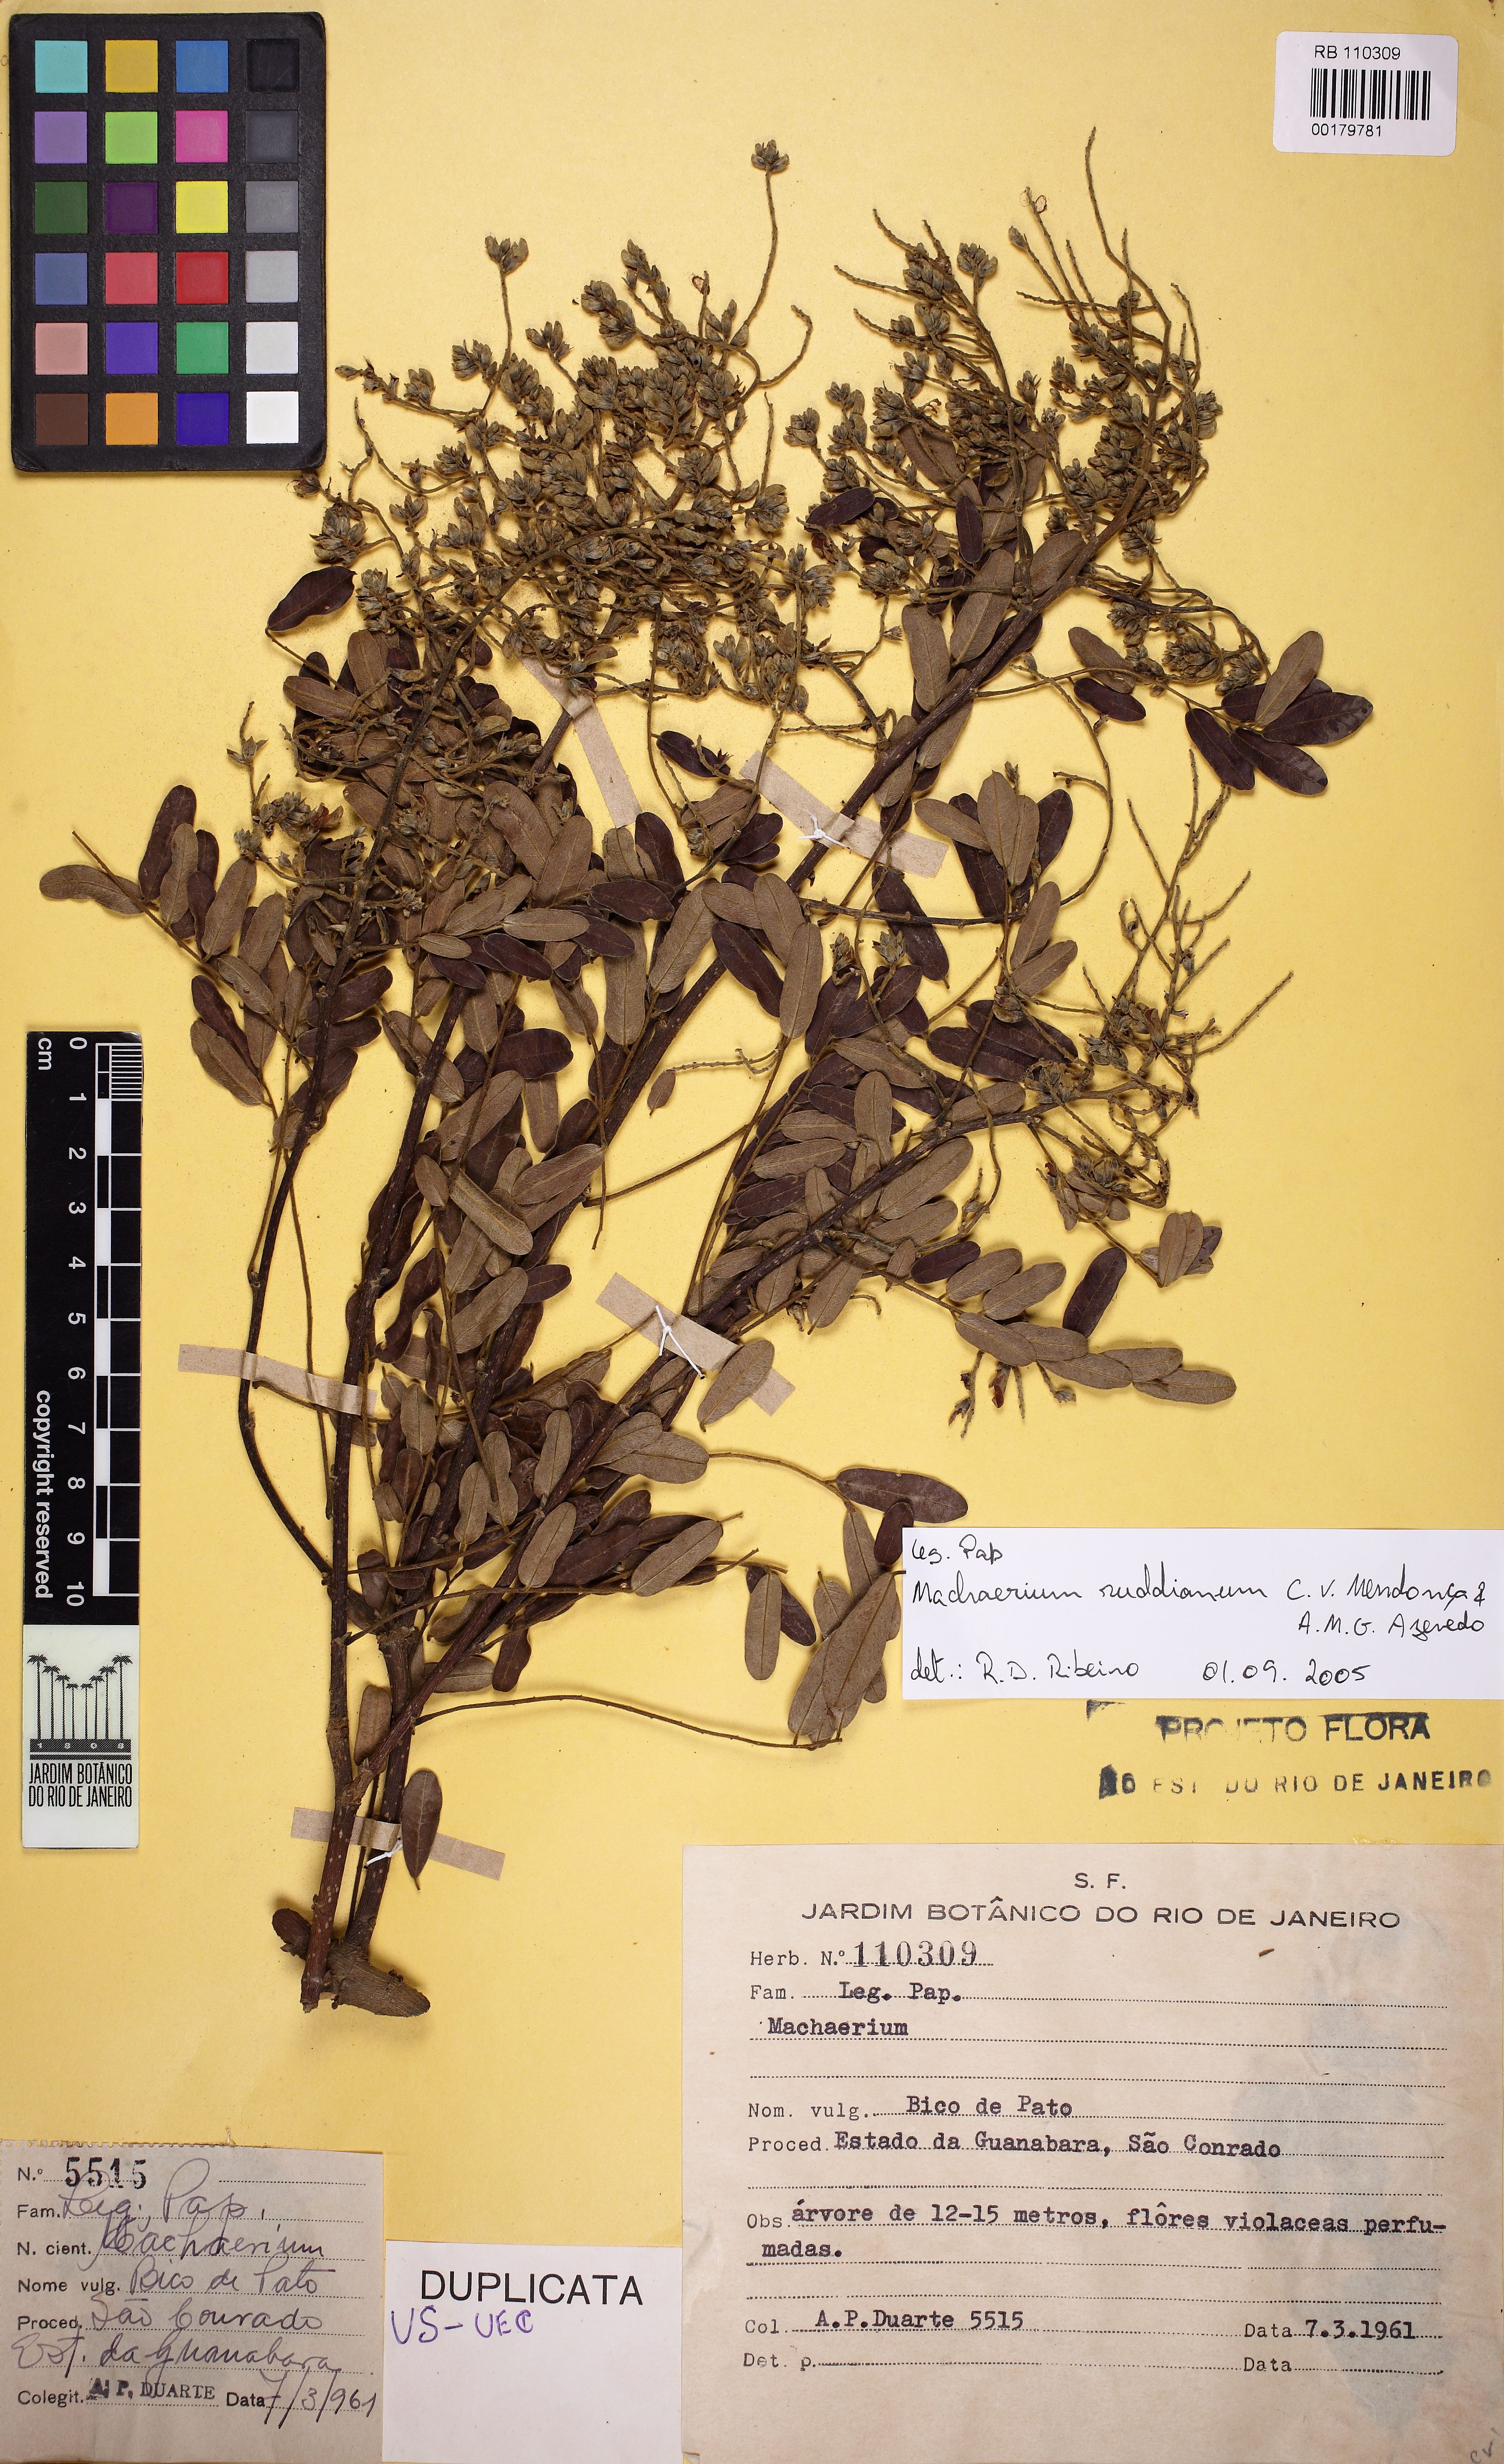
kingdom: Plantae
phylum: Tracheophyta
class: Magnoliopsida
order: Fabales
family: Fabaceae
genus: Machaerium
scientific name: Machaerium ruddianum
